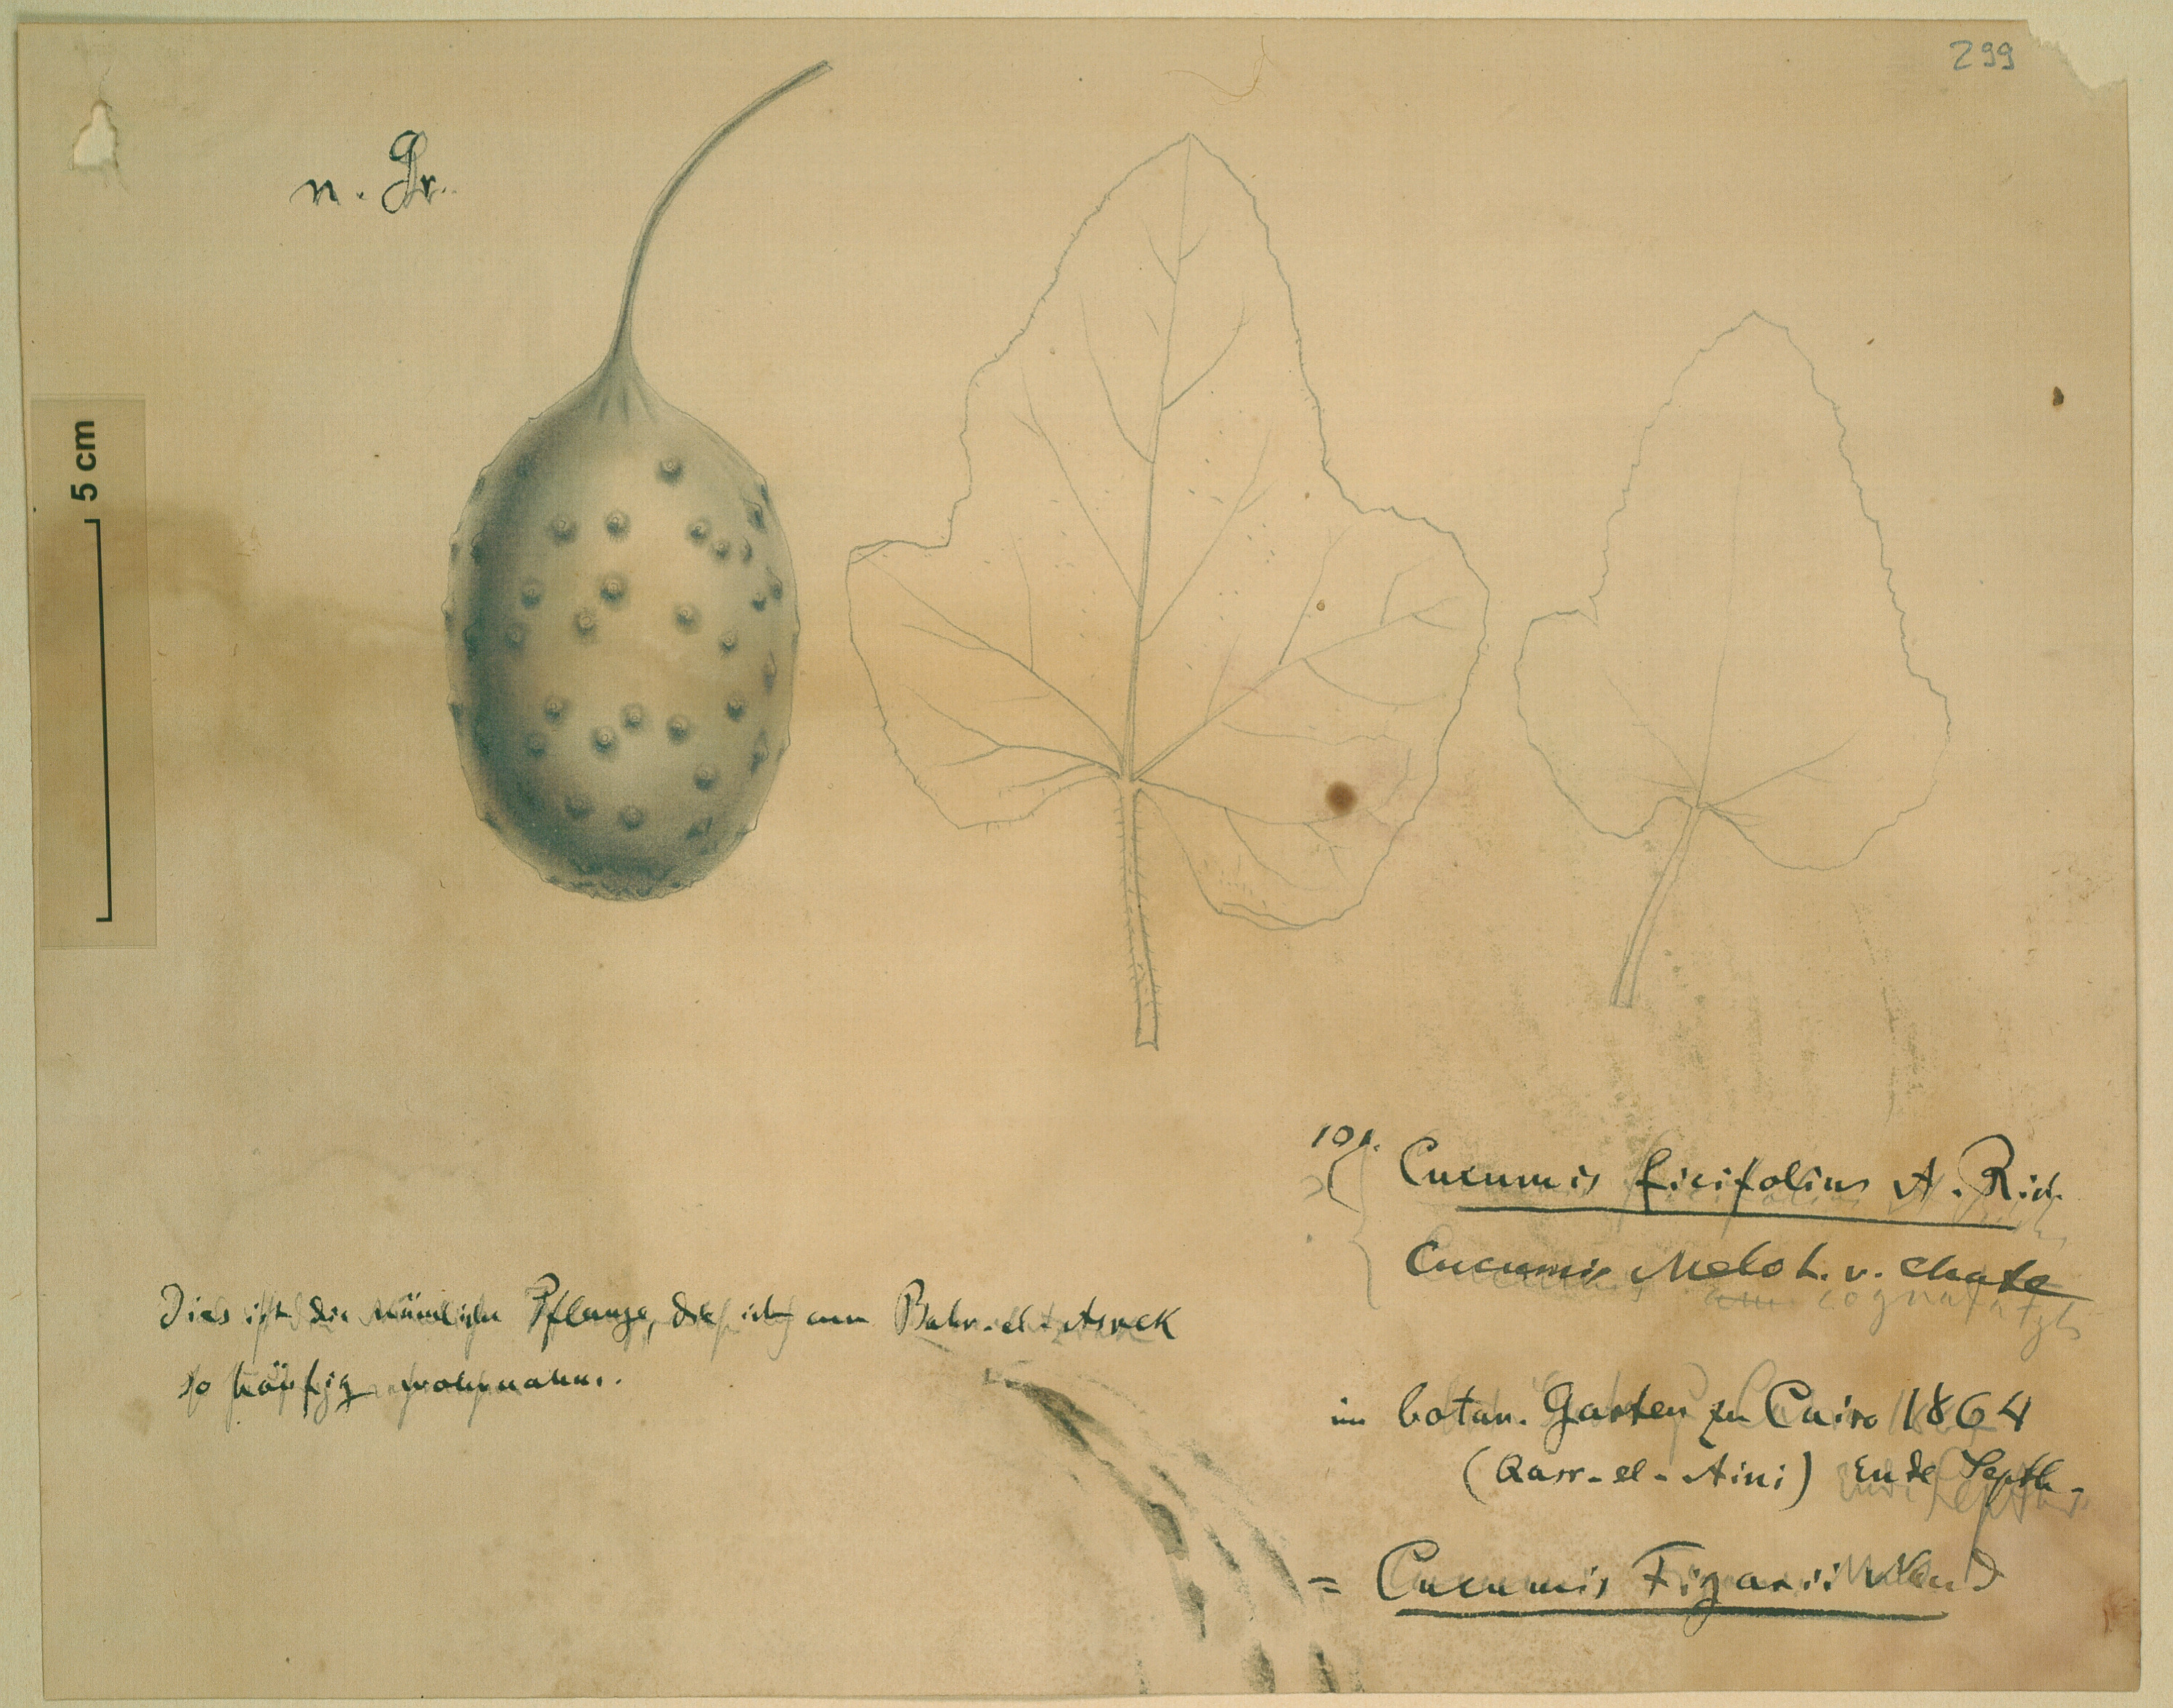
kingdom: Plantae
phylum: Tracheophyta
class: Magnoliopsida
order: Cucurbitales
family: Cucurbitaceae
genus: Cucumis
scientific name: Cucumis ficifolius
